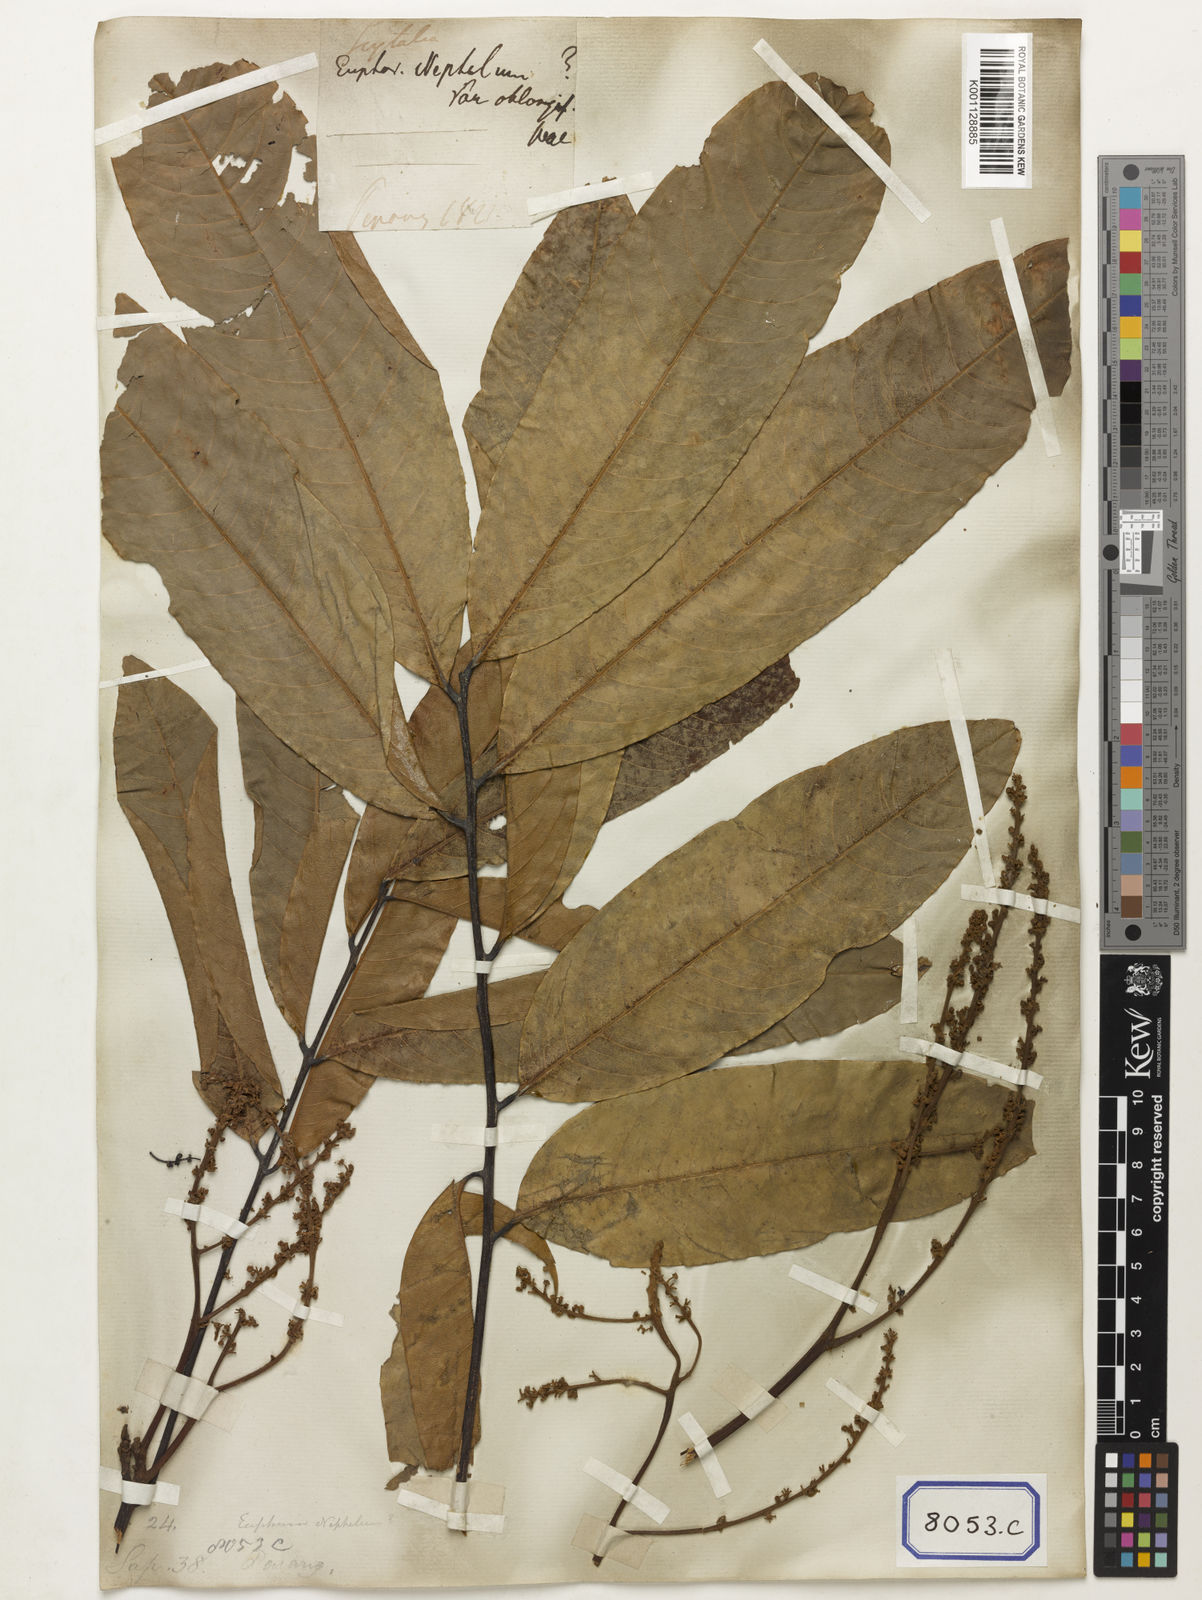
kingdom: Animalia
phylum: Arthropoda
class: Insecta
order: Coleoptera
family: Scarabaeidae
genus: Euphoria
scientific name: Euphoria
